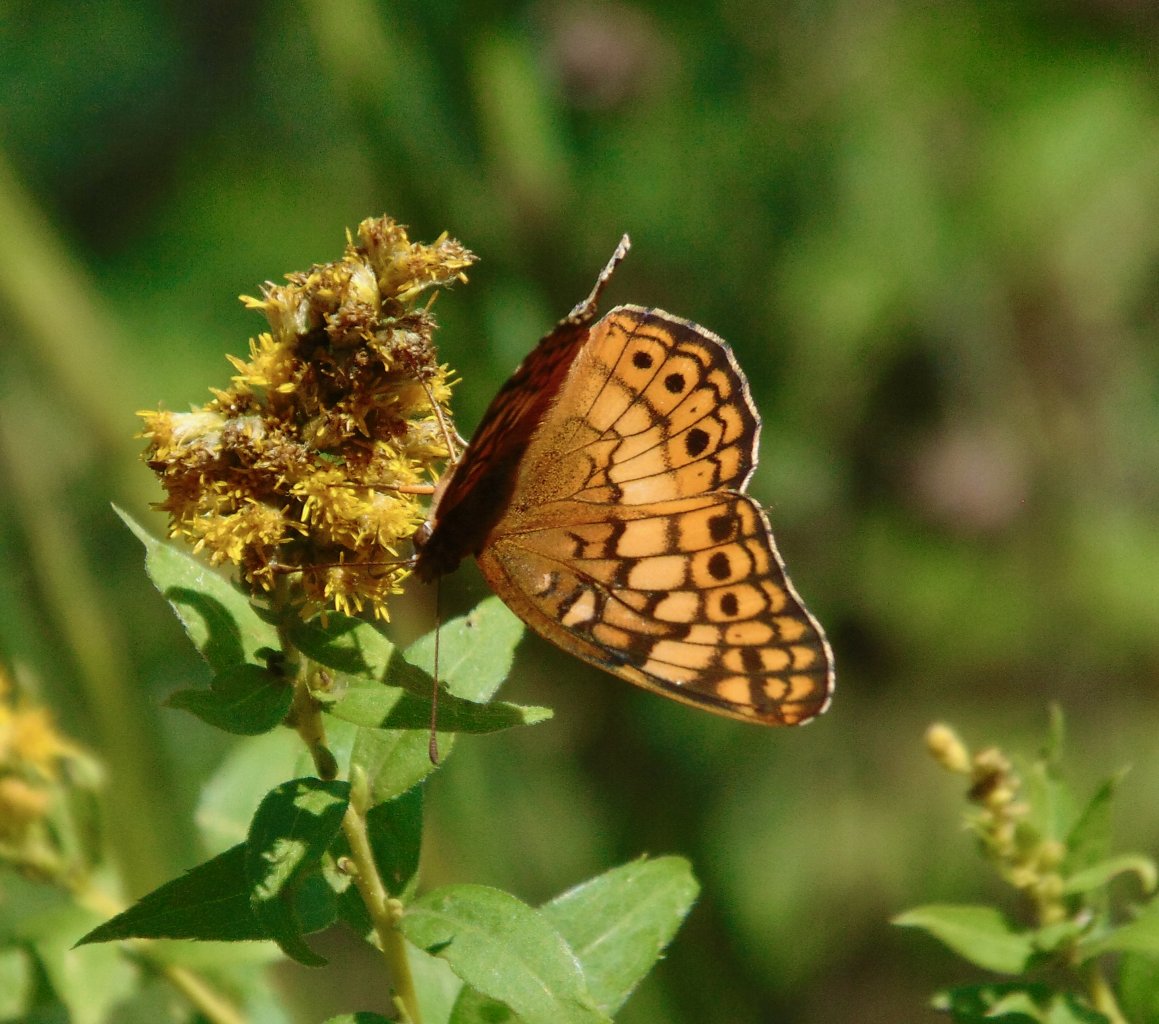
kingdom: Animalia
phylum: Arthropoda
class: Insecta
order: Lepidoptera
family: Nymphalidae
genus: Euptoieta
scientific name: Euptoieta claudia
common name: Variegated Fritillary
